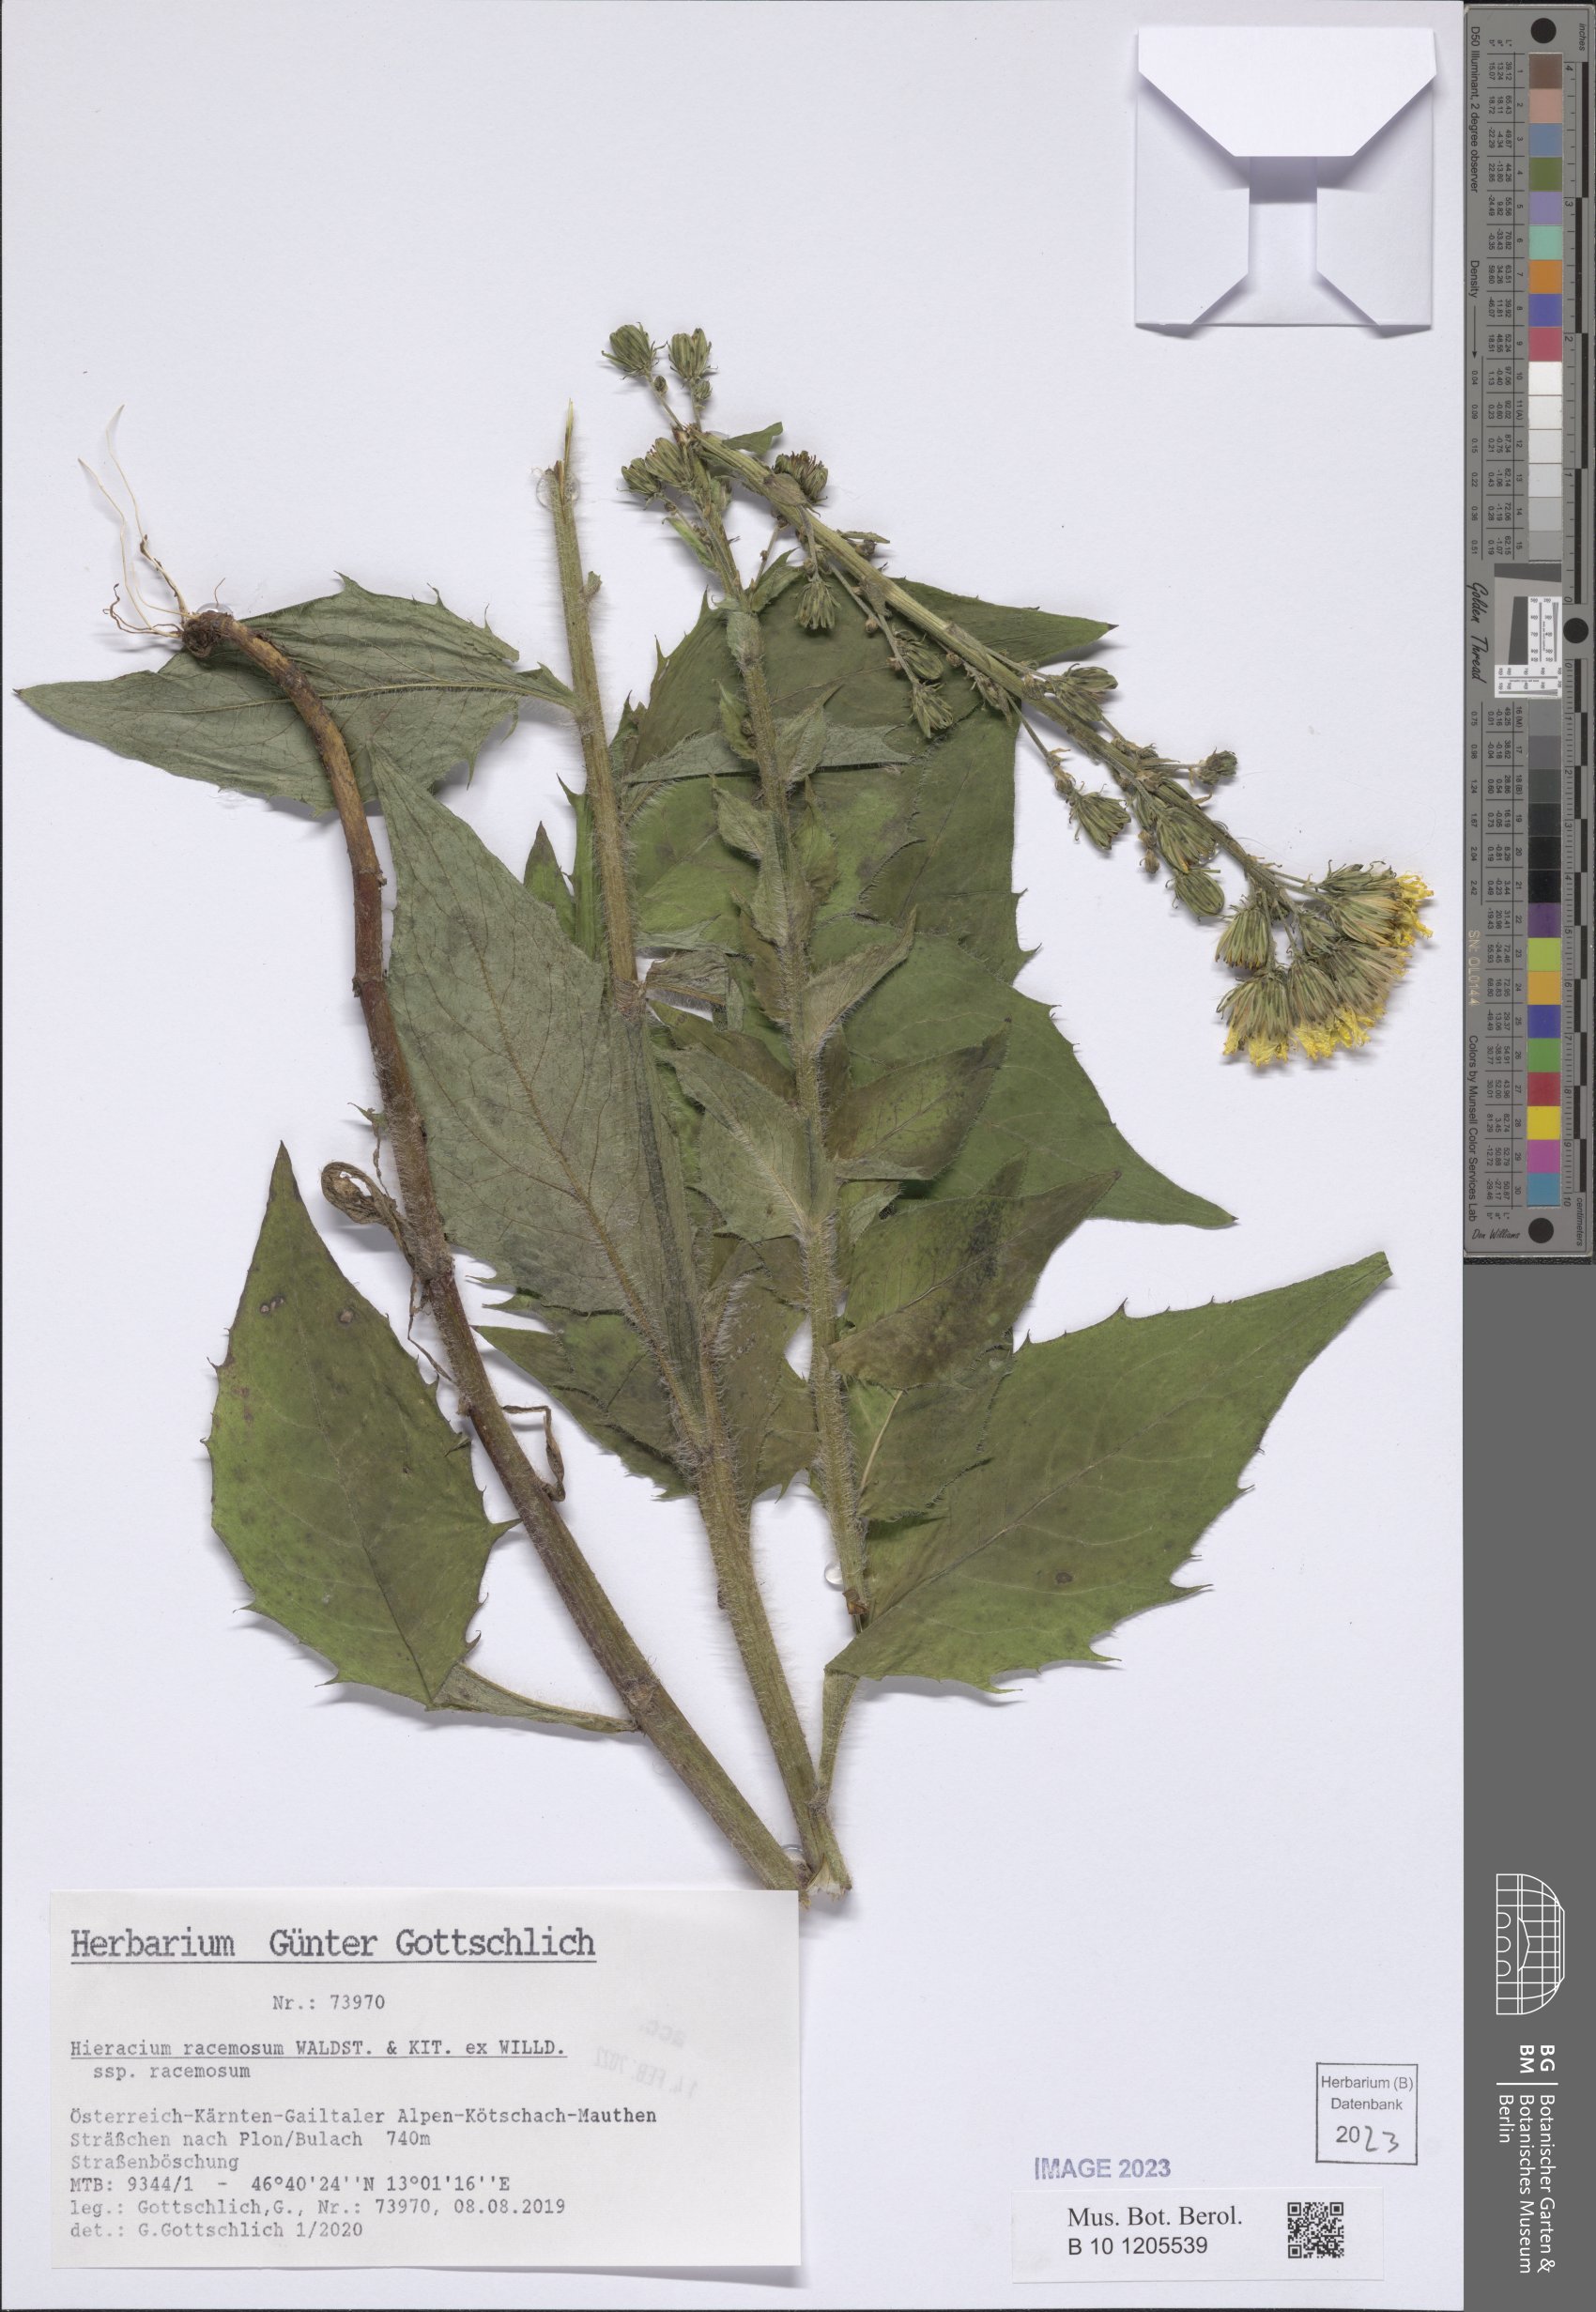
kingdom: Plantae
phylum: Tracheophyta
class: Magnoliopsida
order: Asterales
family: Asteraceae
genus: Hieracium
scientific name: Hieracium racemosum
